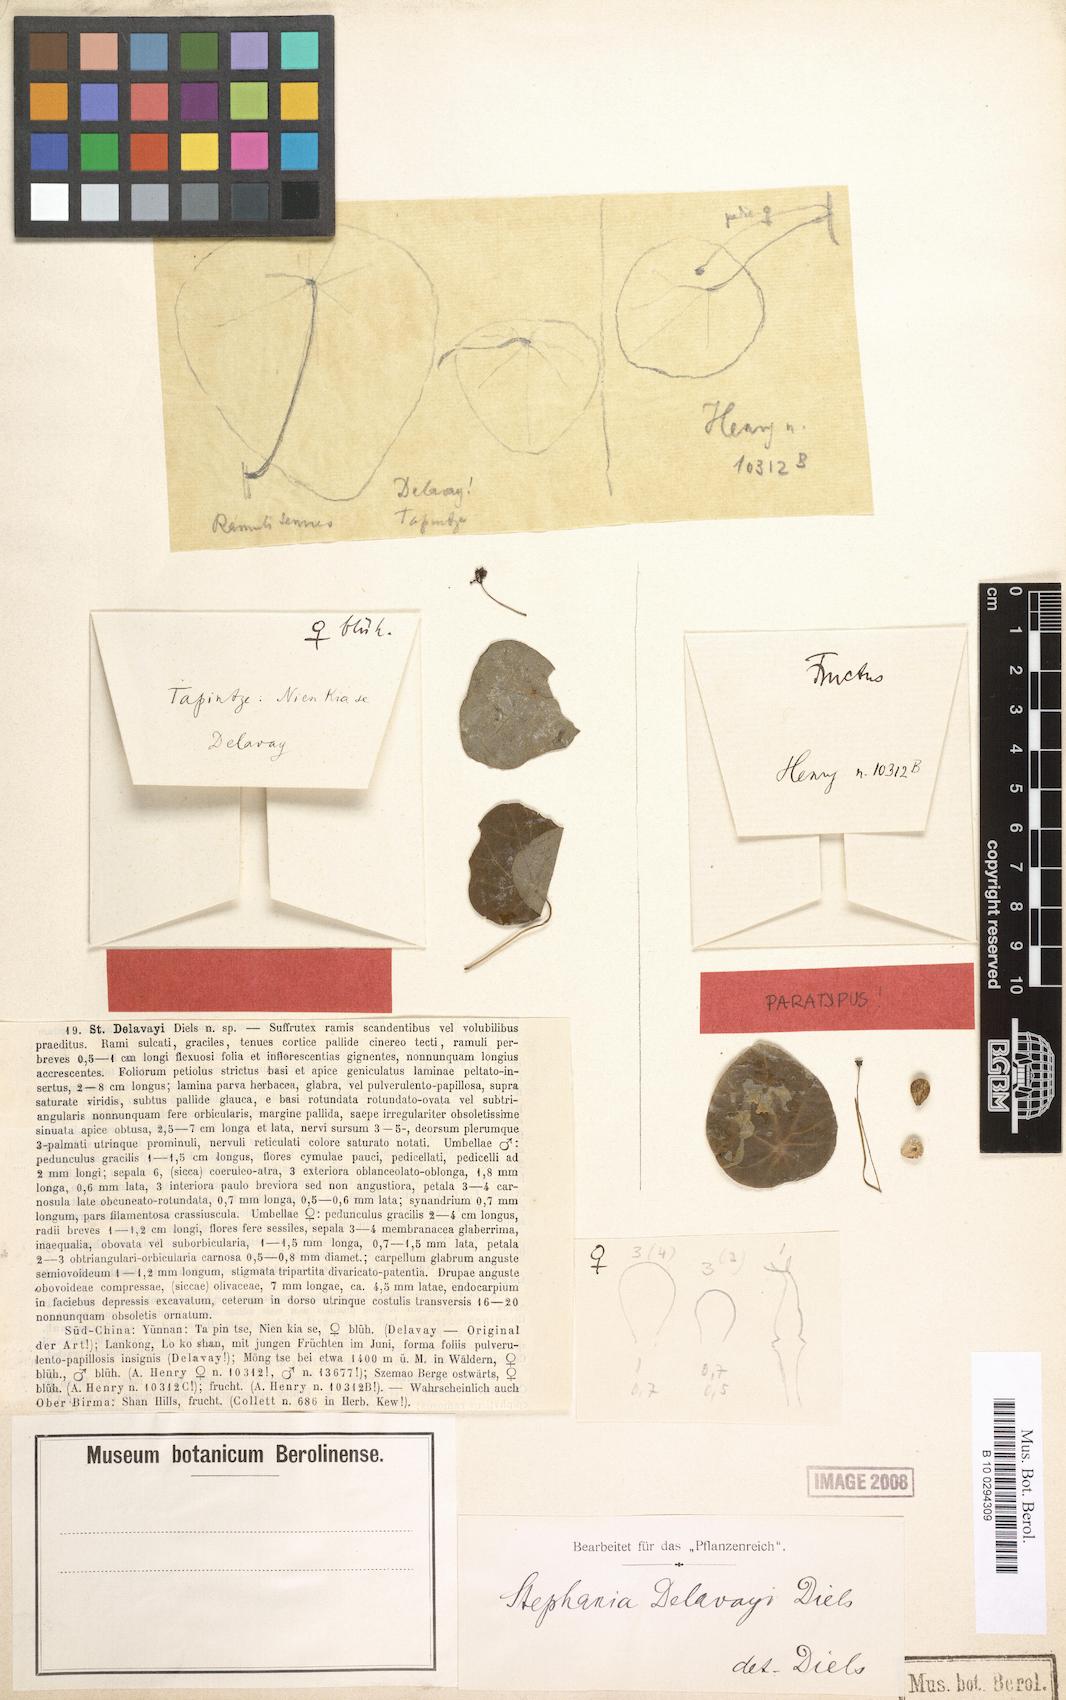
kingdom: Plantae
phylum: Tracheophyta
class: Magnoliopsida
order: Ranunculales
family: Menispermaceae
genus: Stephania
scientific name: Stephania delavayi
